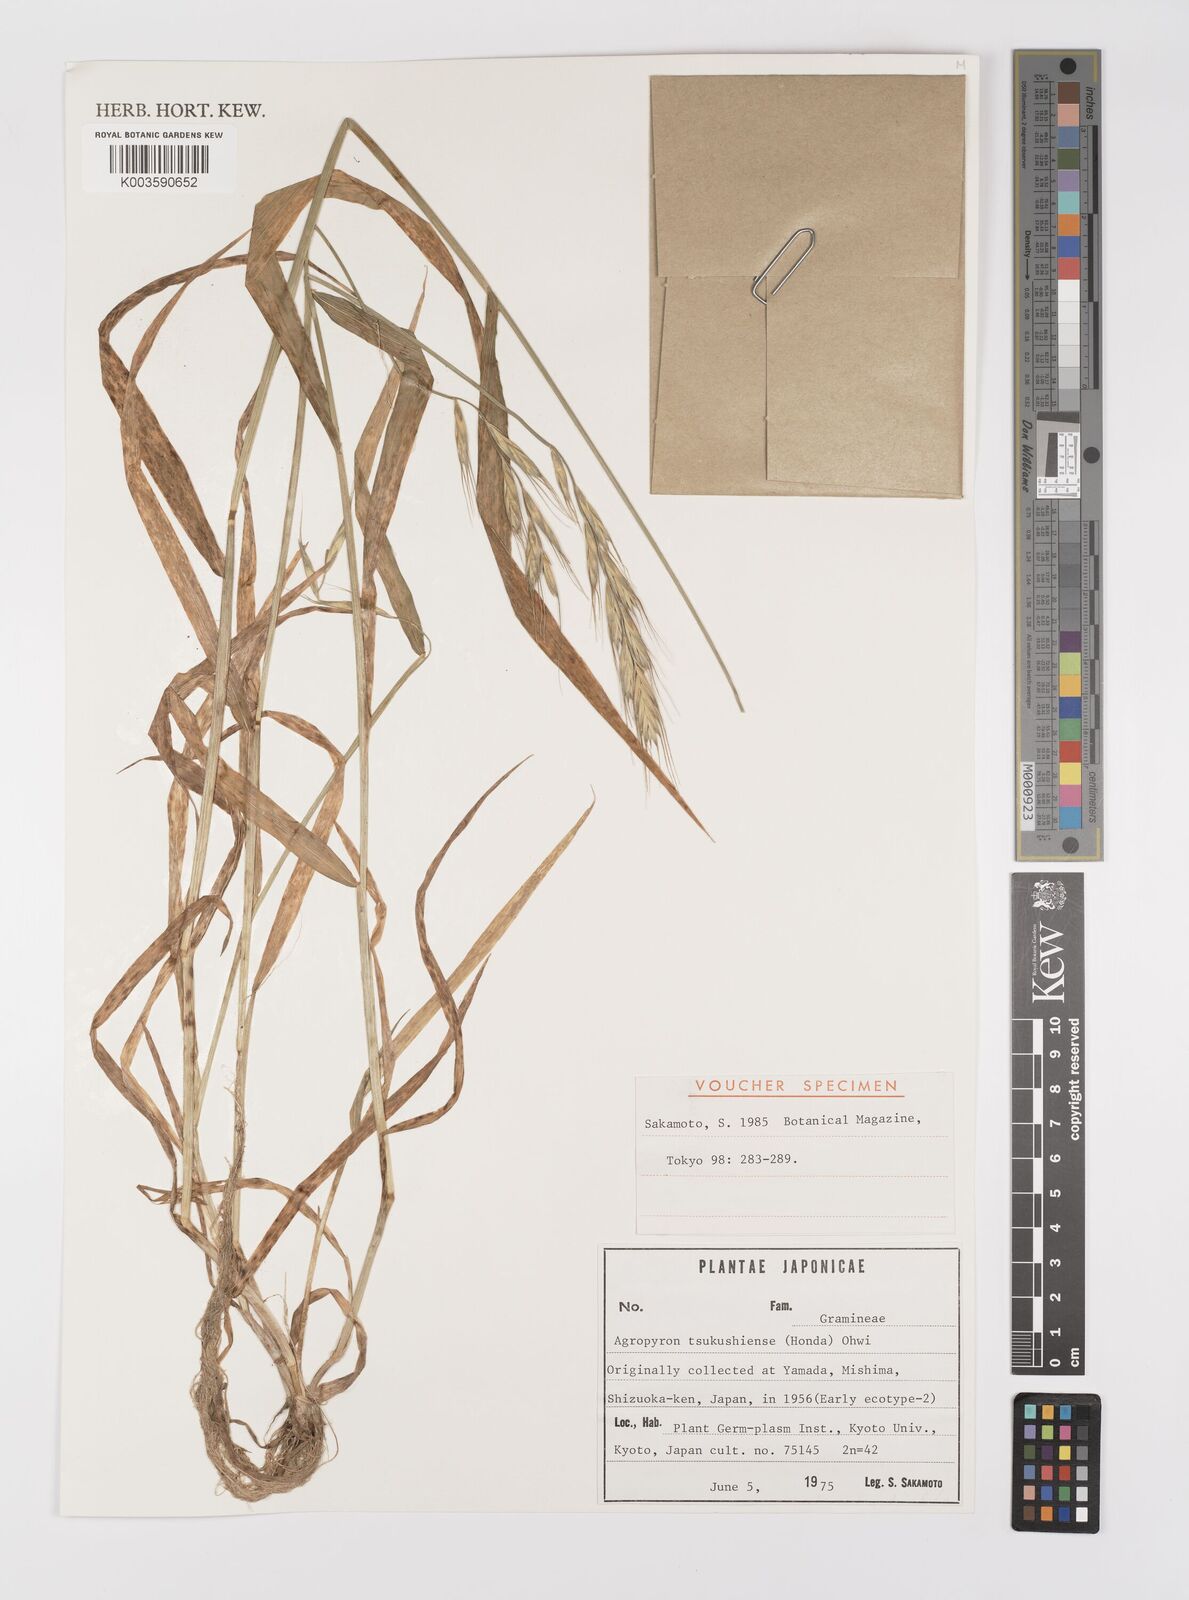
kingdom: Plantae
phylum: Tracheophyta
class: Liliopsida
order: Poales
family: Poaceae
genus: Elymus
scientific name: Elymus tsukushiensis
